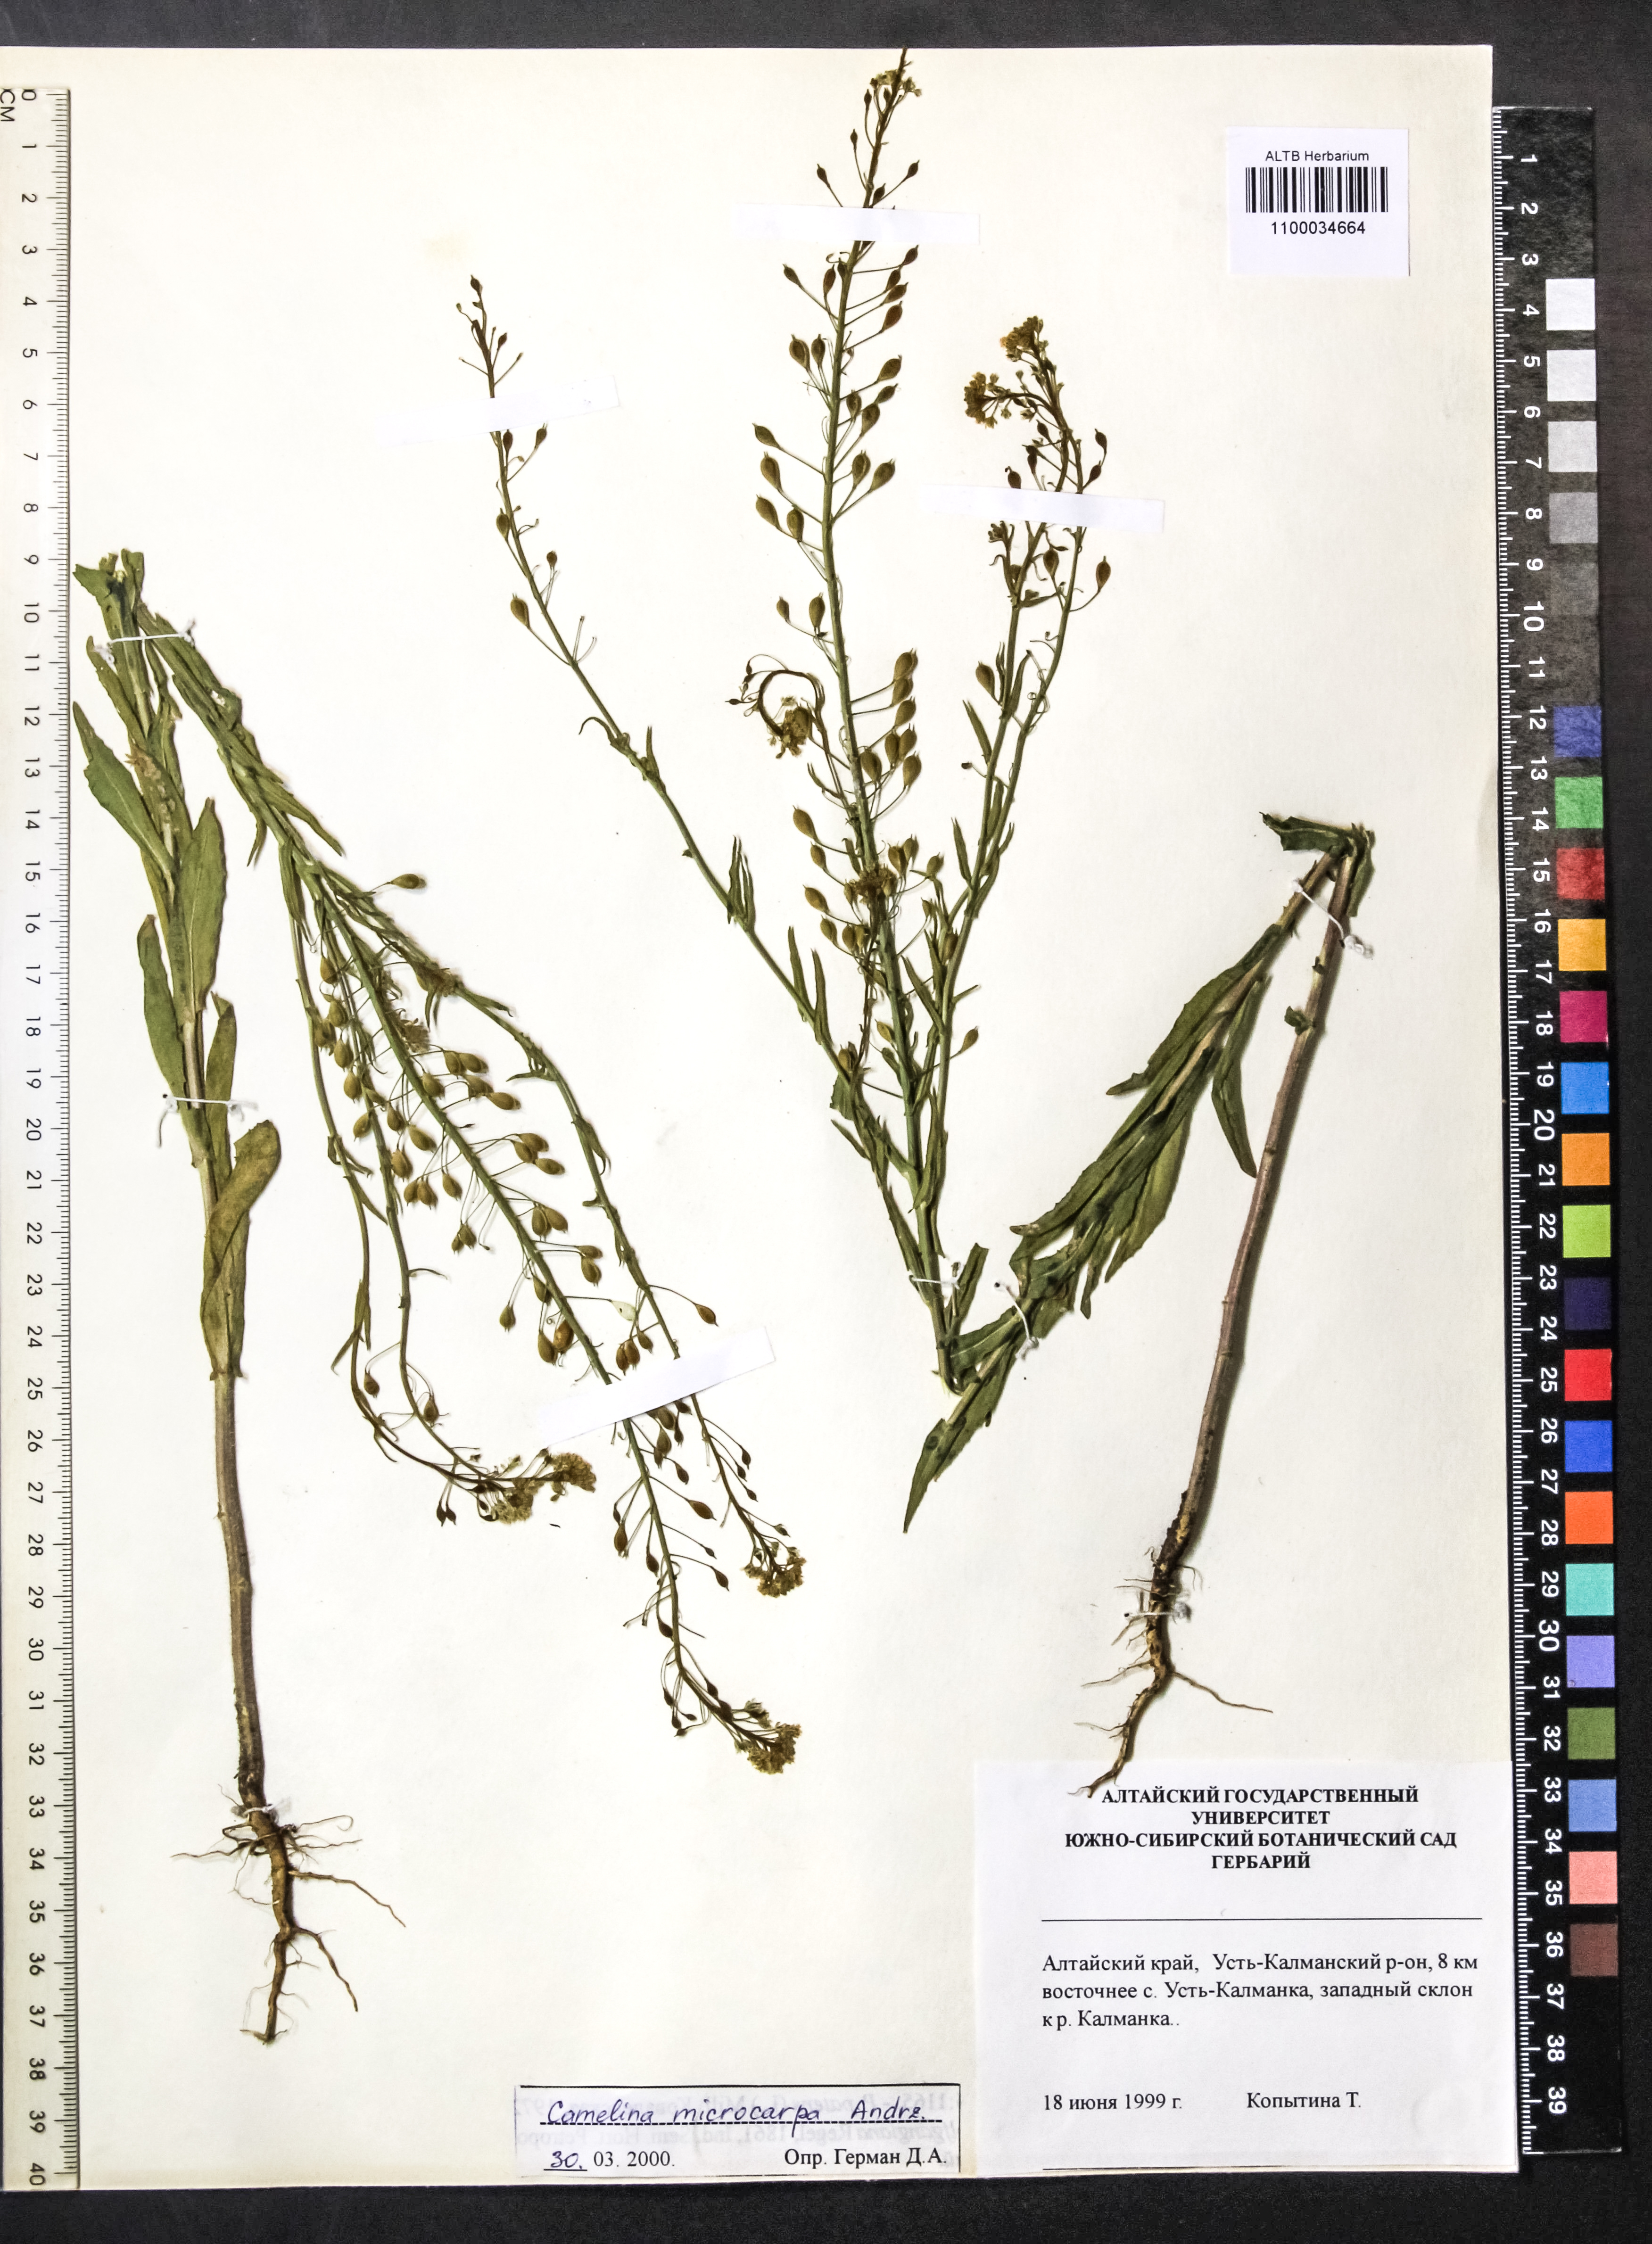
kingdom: Plantae
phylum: Tracheophyta
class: Magnoliopsida
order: Brassicales
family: Brassicaceae
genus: Camelina
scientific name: Camelina microcarpa
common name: Lesser gold-of-pleasure
